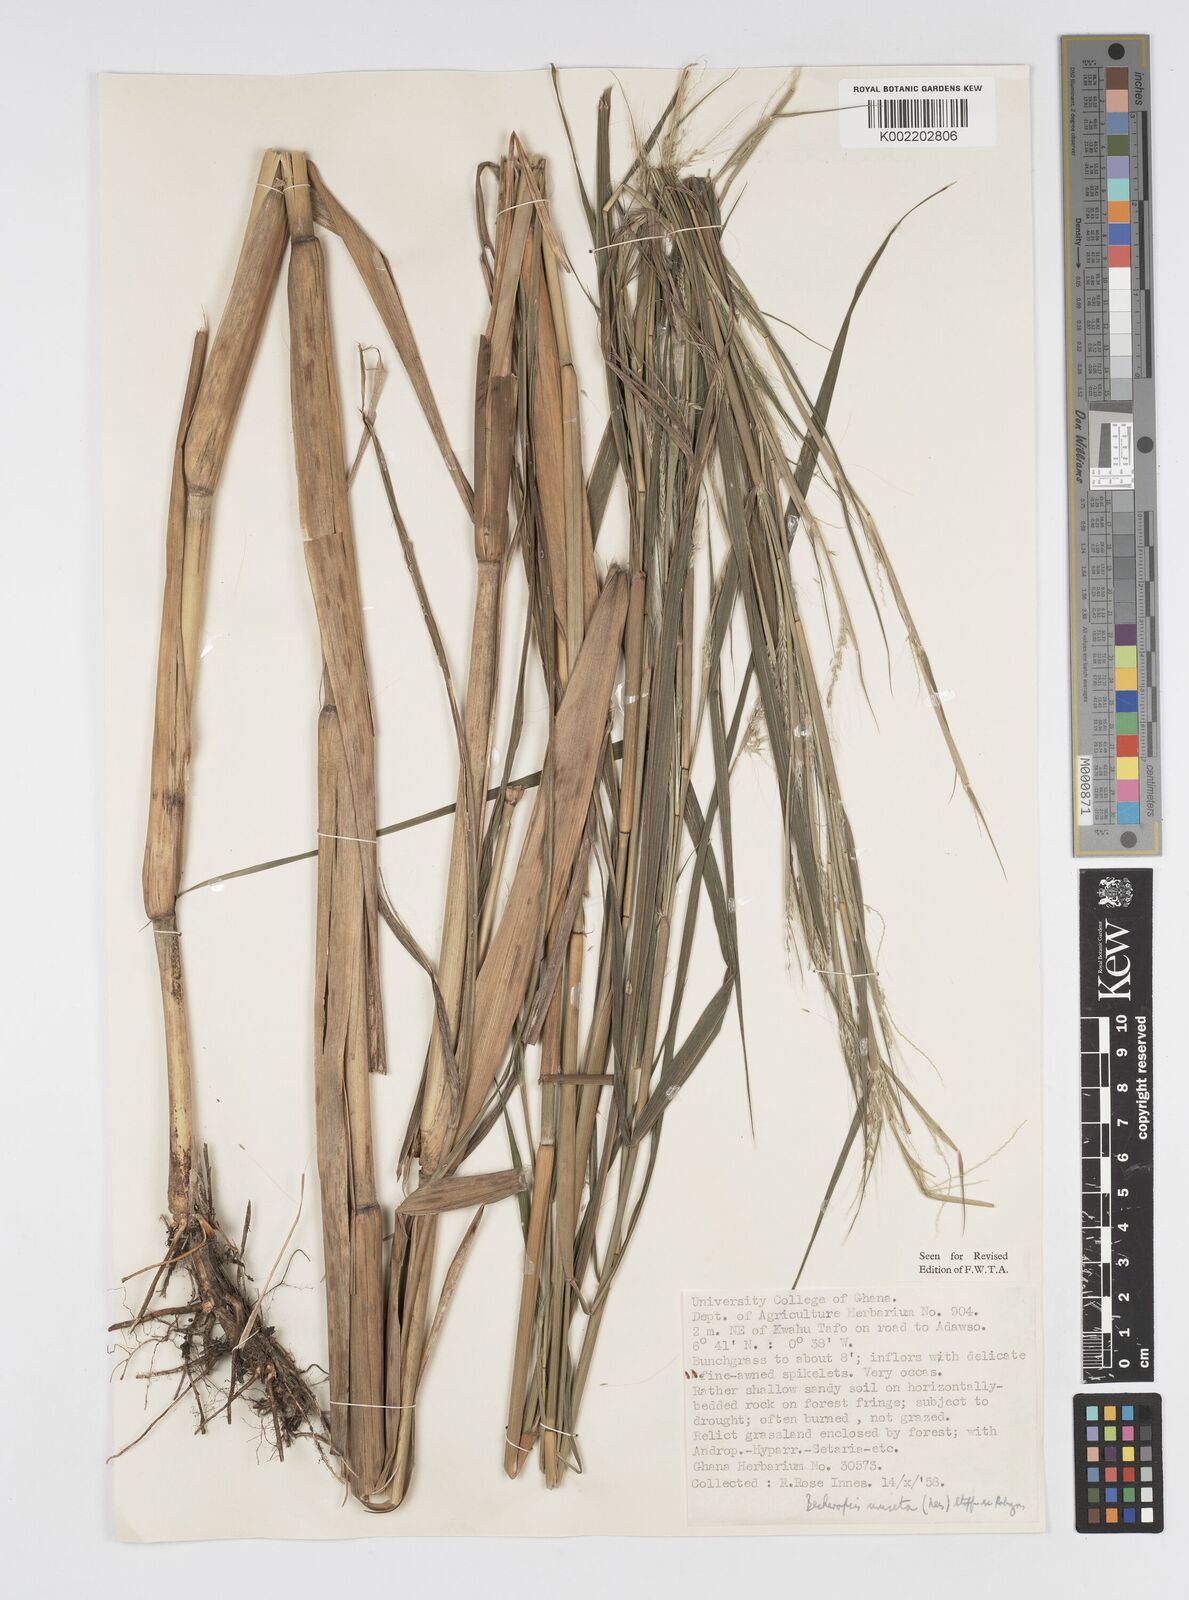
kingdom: Plantae
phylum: Tracheophyta
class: Liliopsida
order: Poales
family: Poaceae
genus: Cenchrus
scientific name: Cenchrus unisetus
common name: Natal grass
